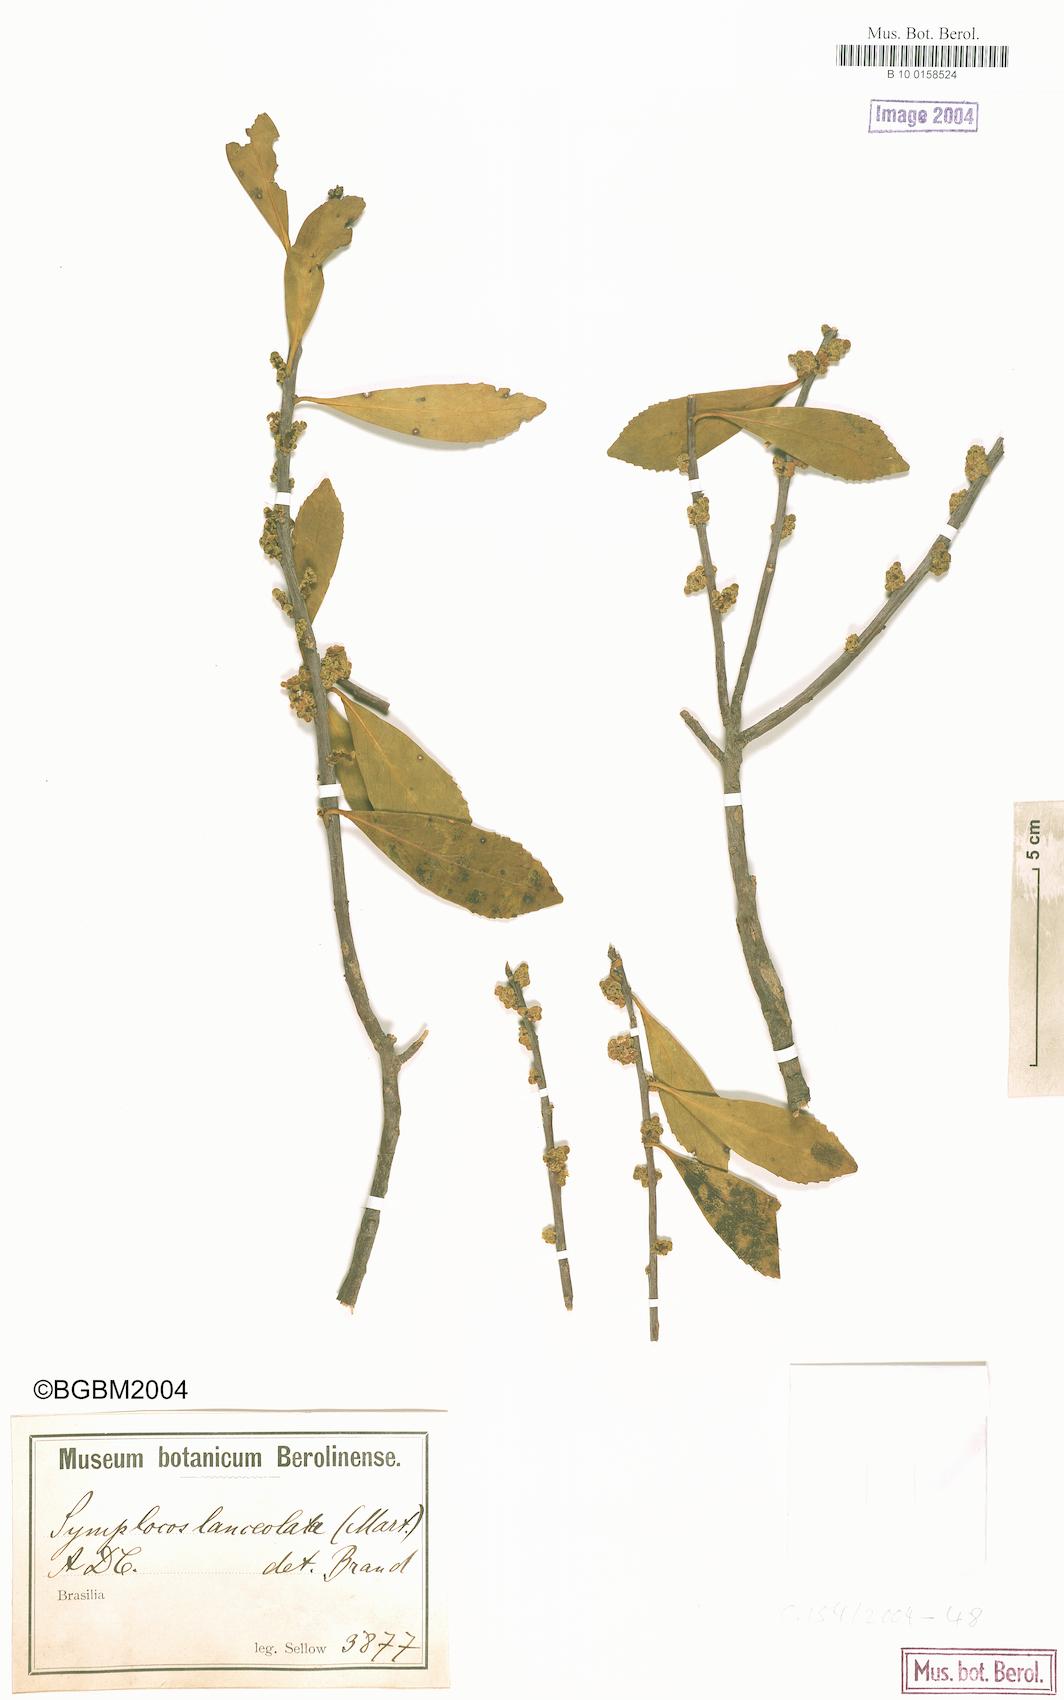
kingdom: Plantae
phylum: Tracheophyta
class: Magnoliopsida
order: Ericales
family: Symplocaceae
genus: Symplocos
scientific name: Symplocos oblongifolia
